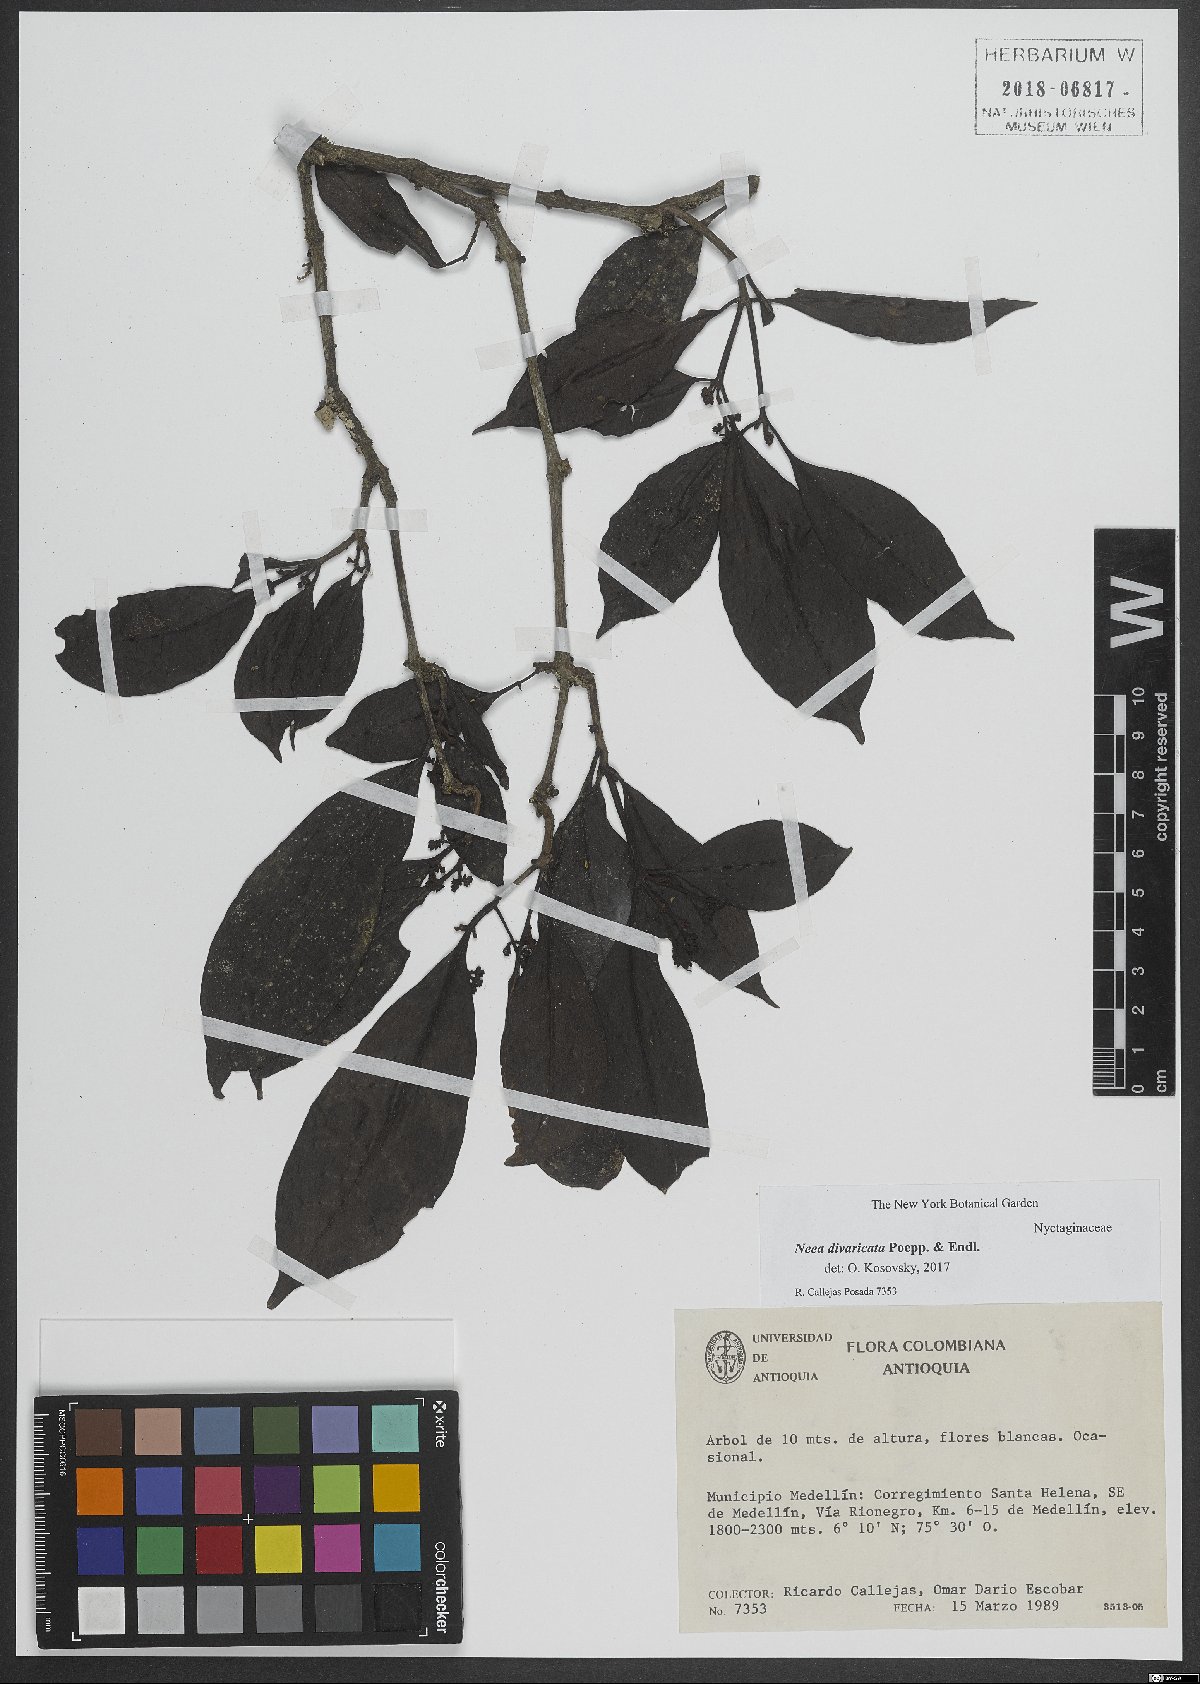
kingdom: Plantae
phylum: Tracheophyta
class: Magnoliopsida
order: Caryophyllales
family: Nyctaginaceae
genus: Neea
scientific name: Neea divaricata
